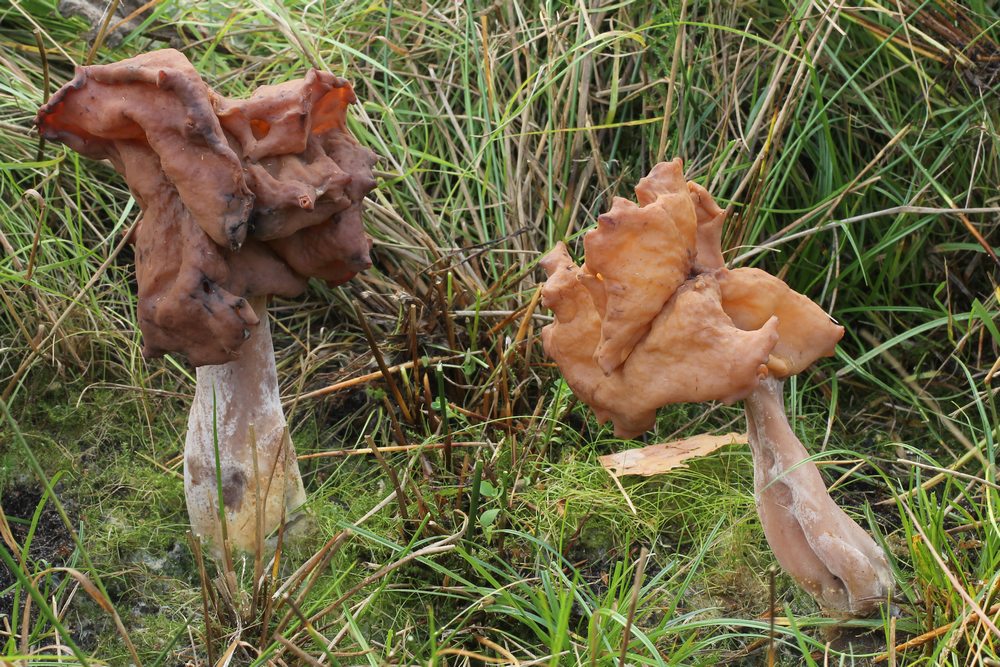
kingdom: Fungi
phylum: Ascomycota
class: Pezizomycetes
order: Pezizales
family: Discinaceae
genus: Gyromitra
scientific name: Gyromitra infula
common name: bispehue-stenmorkel
